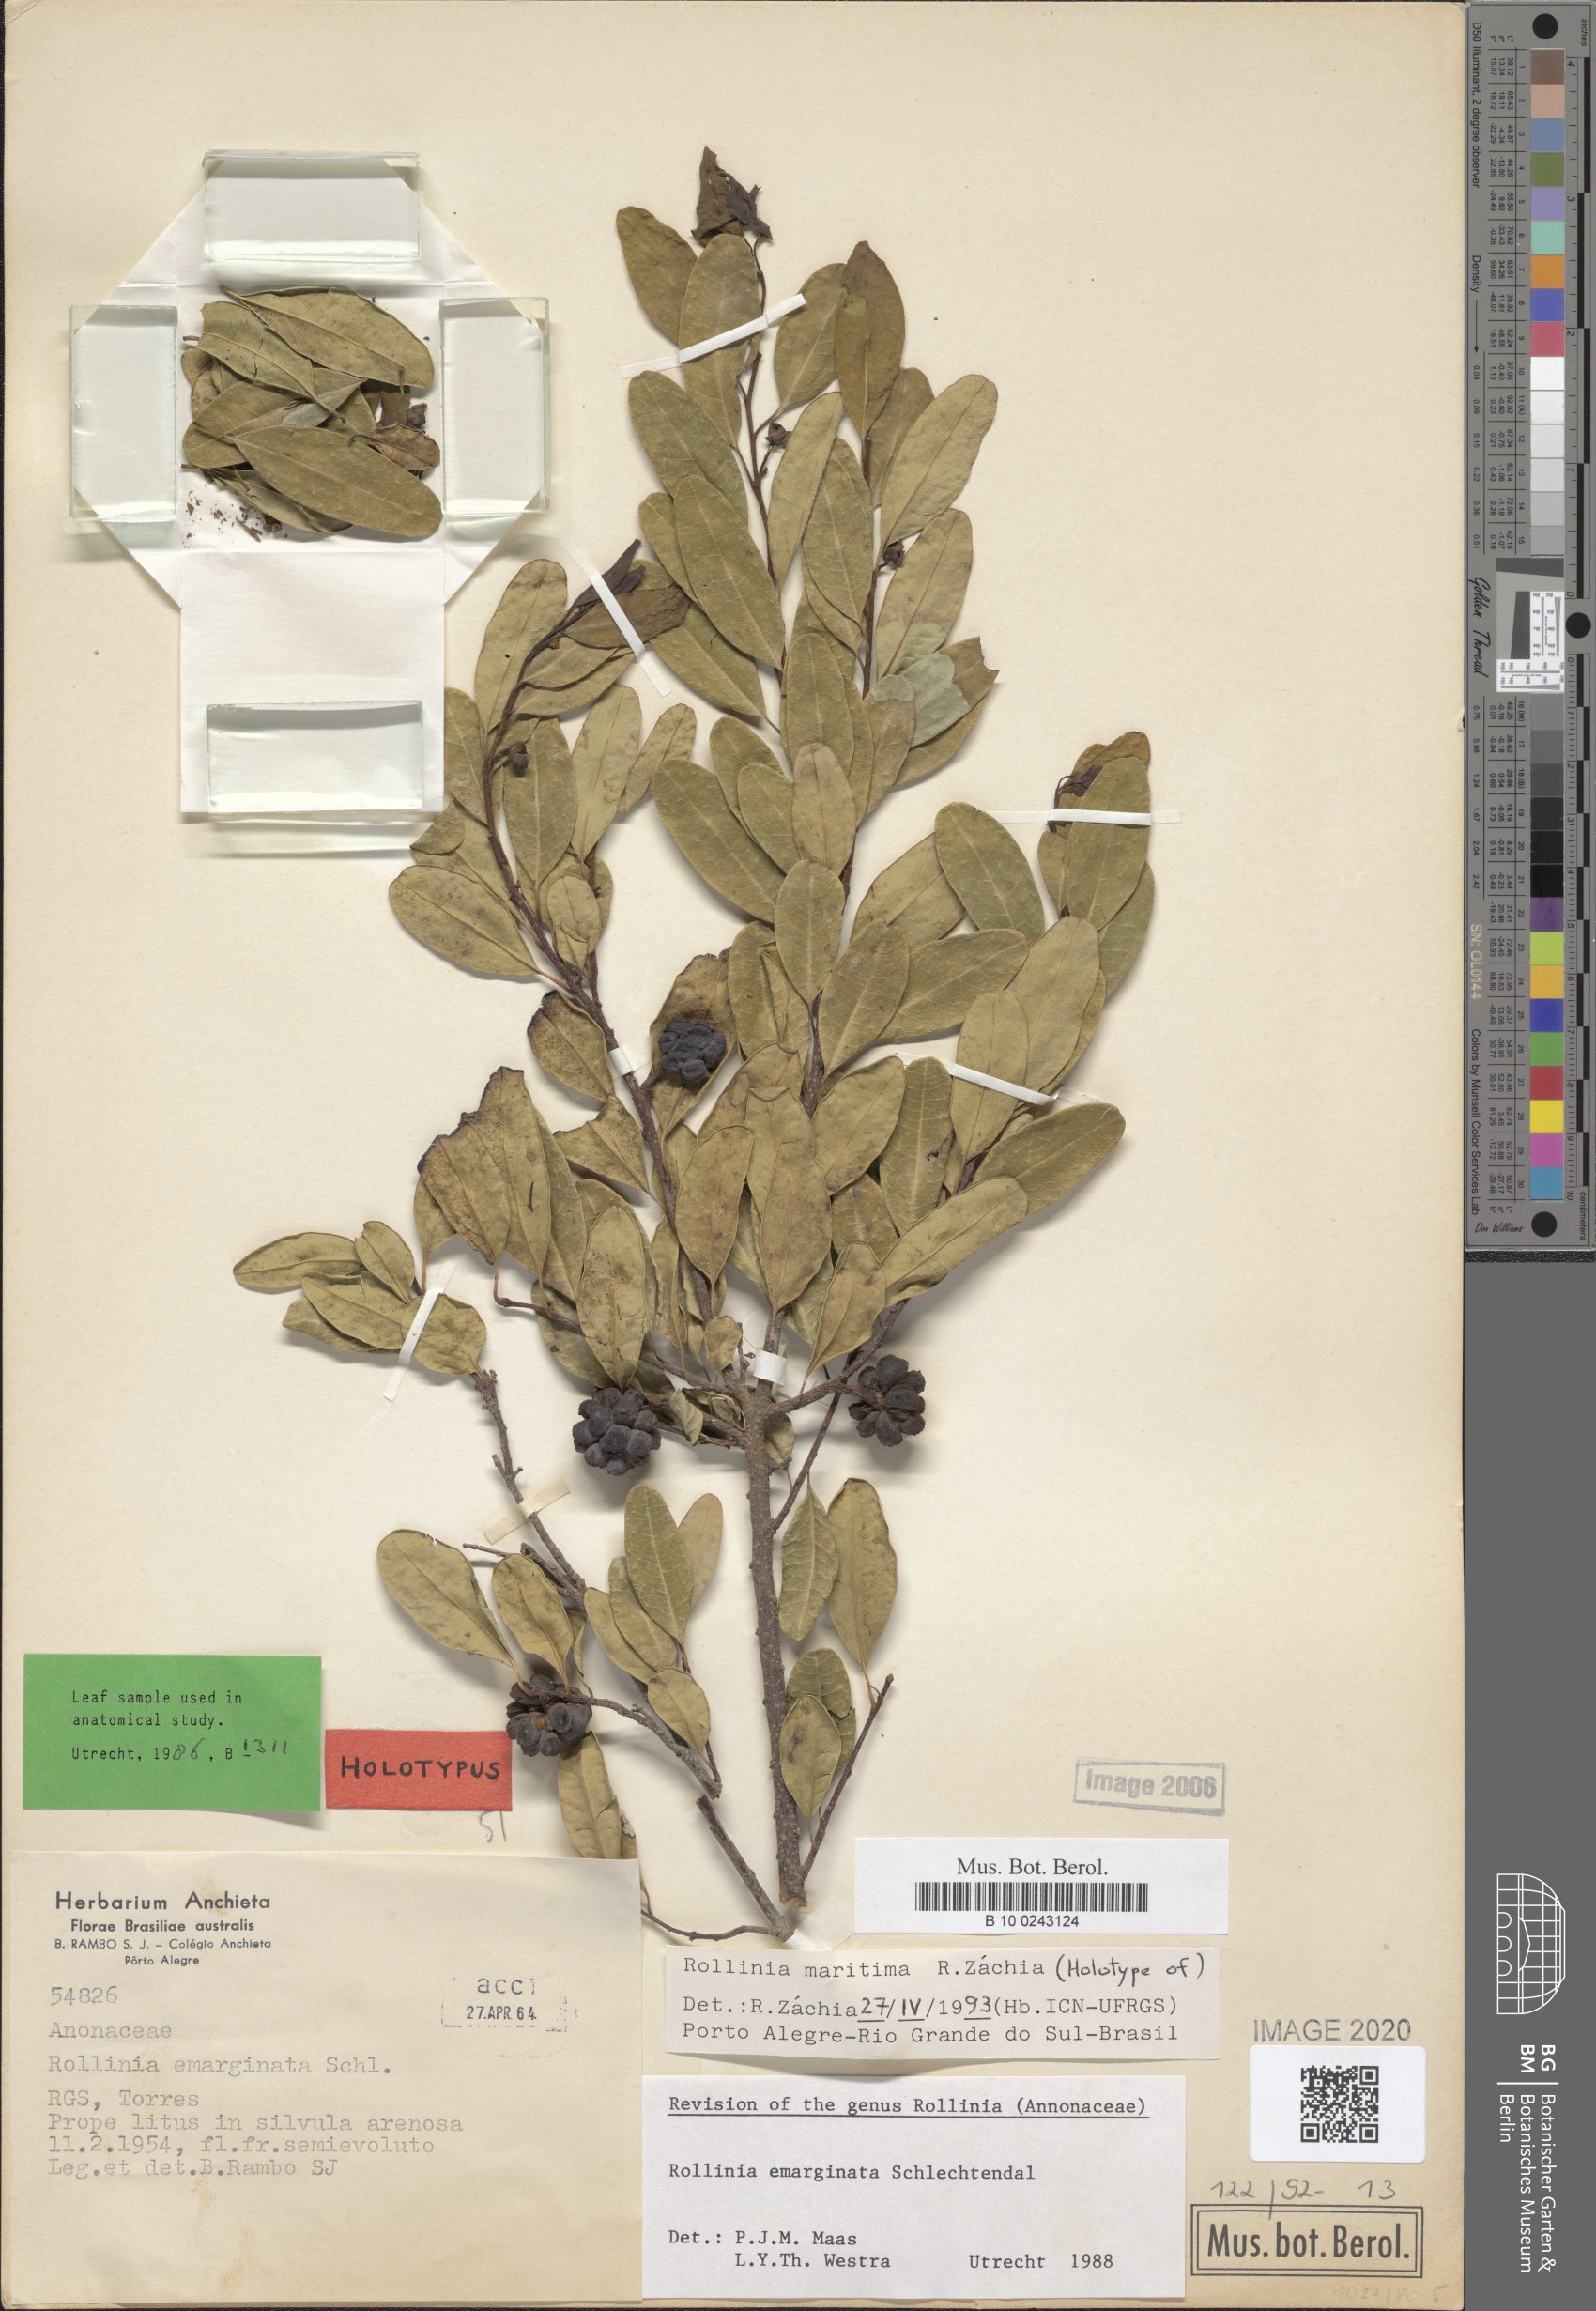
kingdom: Plantae
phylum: Tracheophyta
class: Magnoliopsida
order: Magnoliales
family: Annonaceae
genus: Annona
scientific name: Annona maritima
